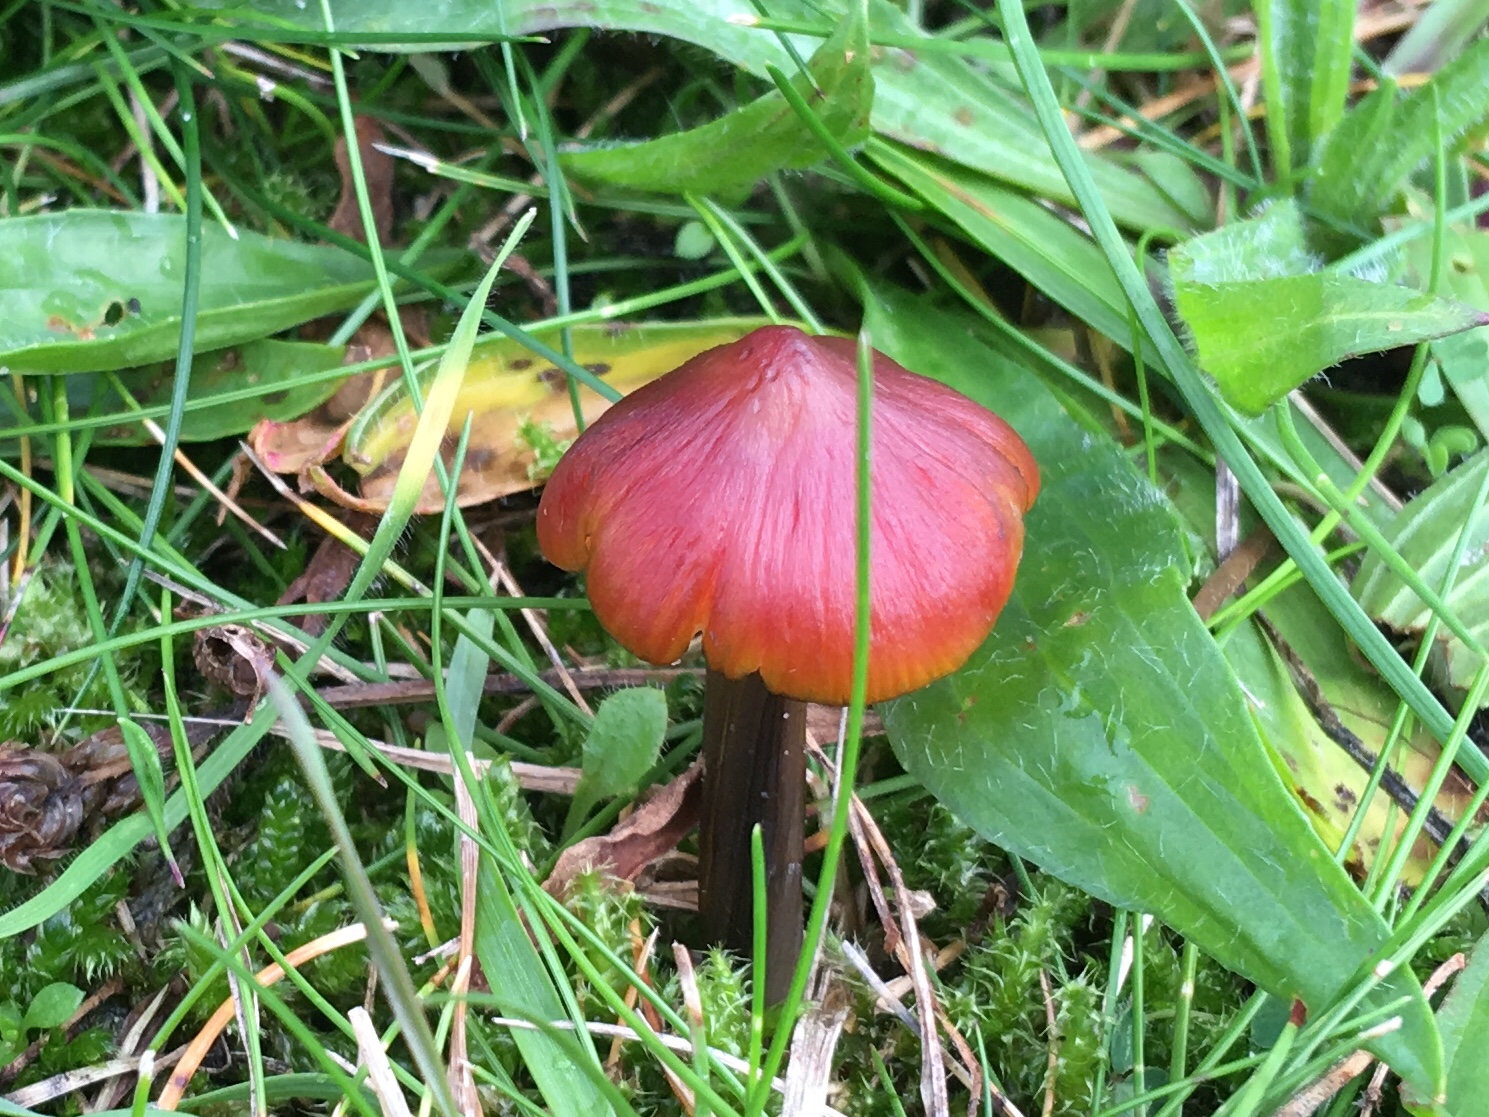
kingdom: Fungi
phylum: Basidiomycota
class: Agaricomycetes
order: Agaricales
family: Hygrophoraceae
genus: Hygrocybe
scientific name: Hygrocybe conica
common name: kegle-vokshat
